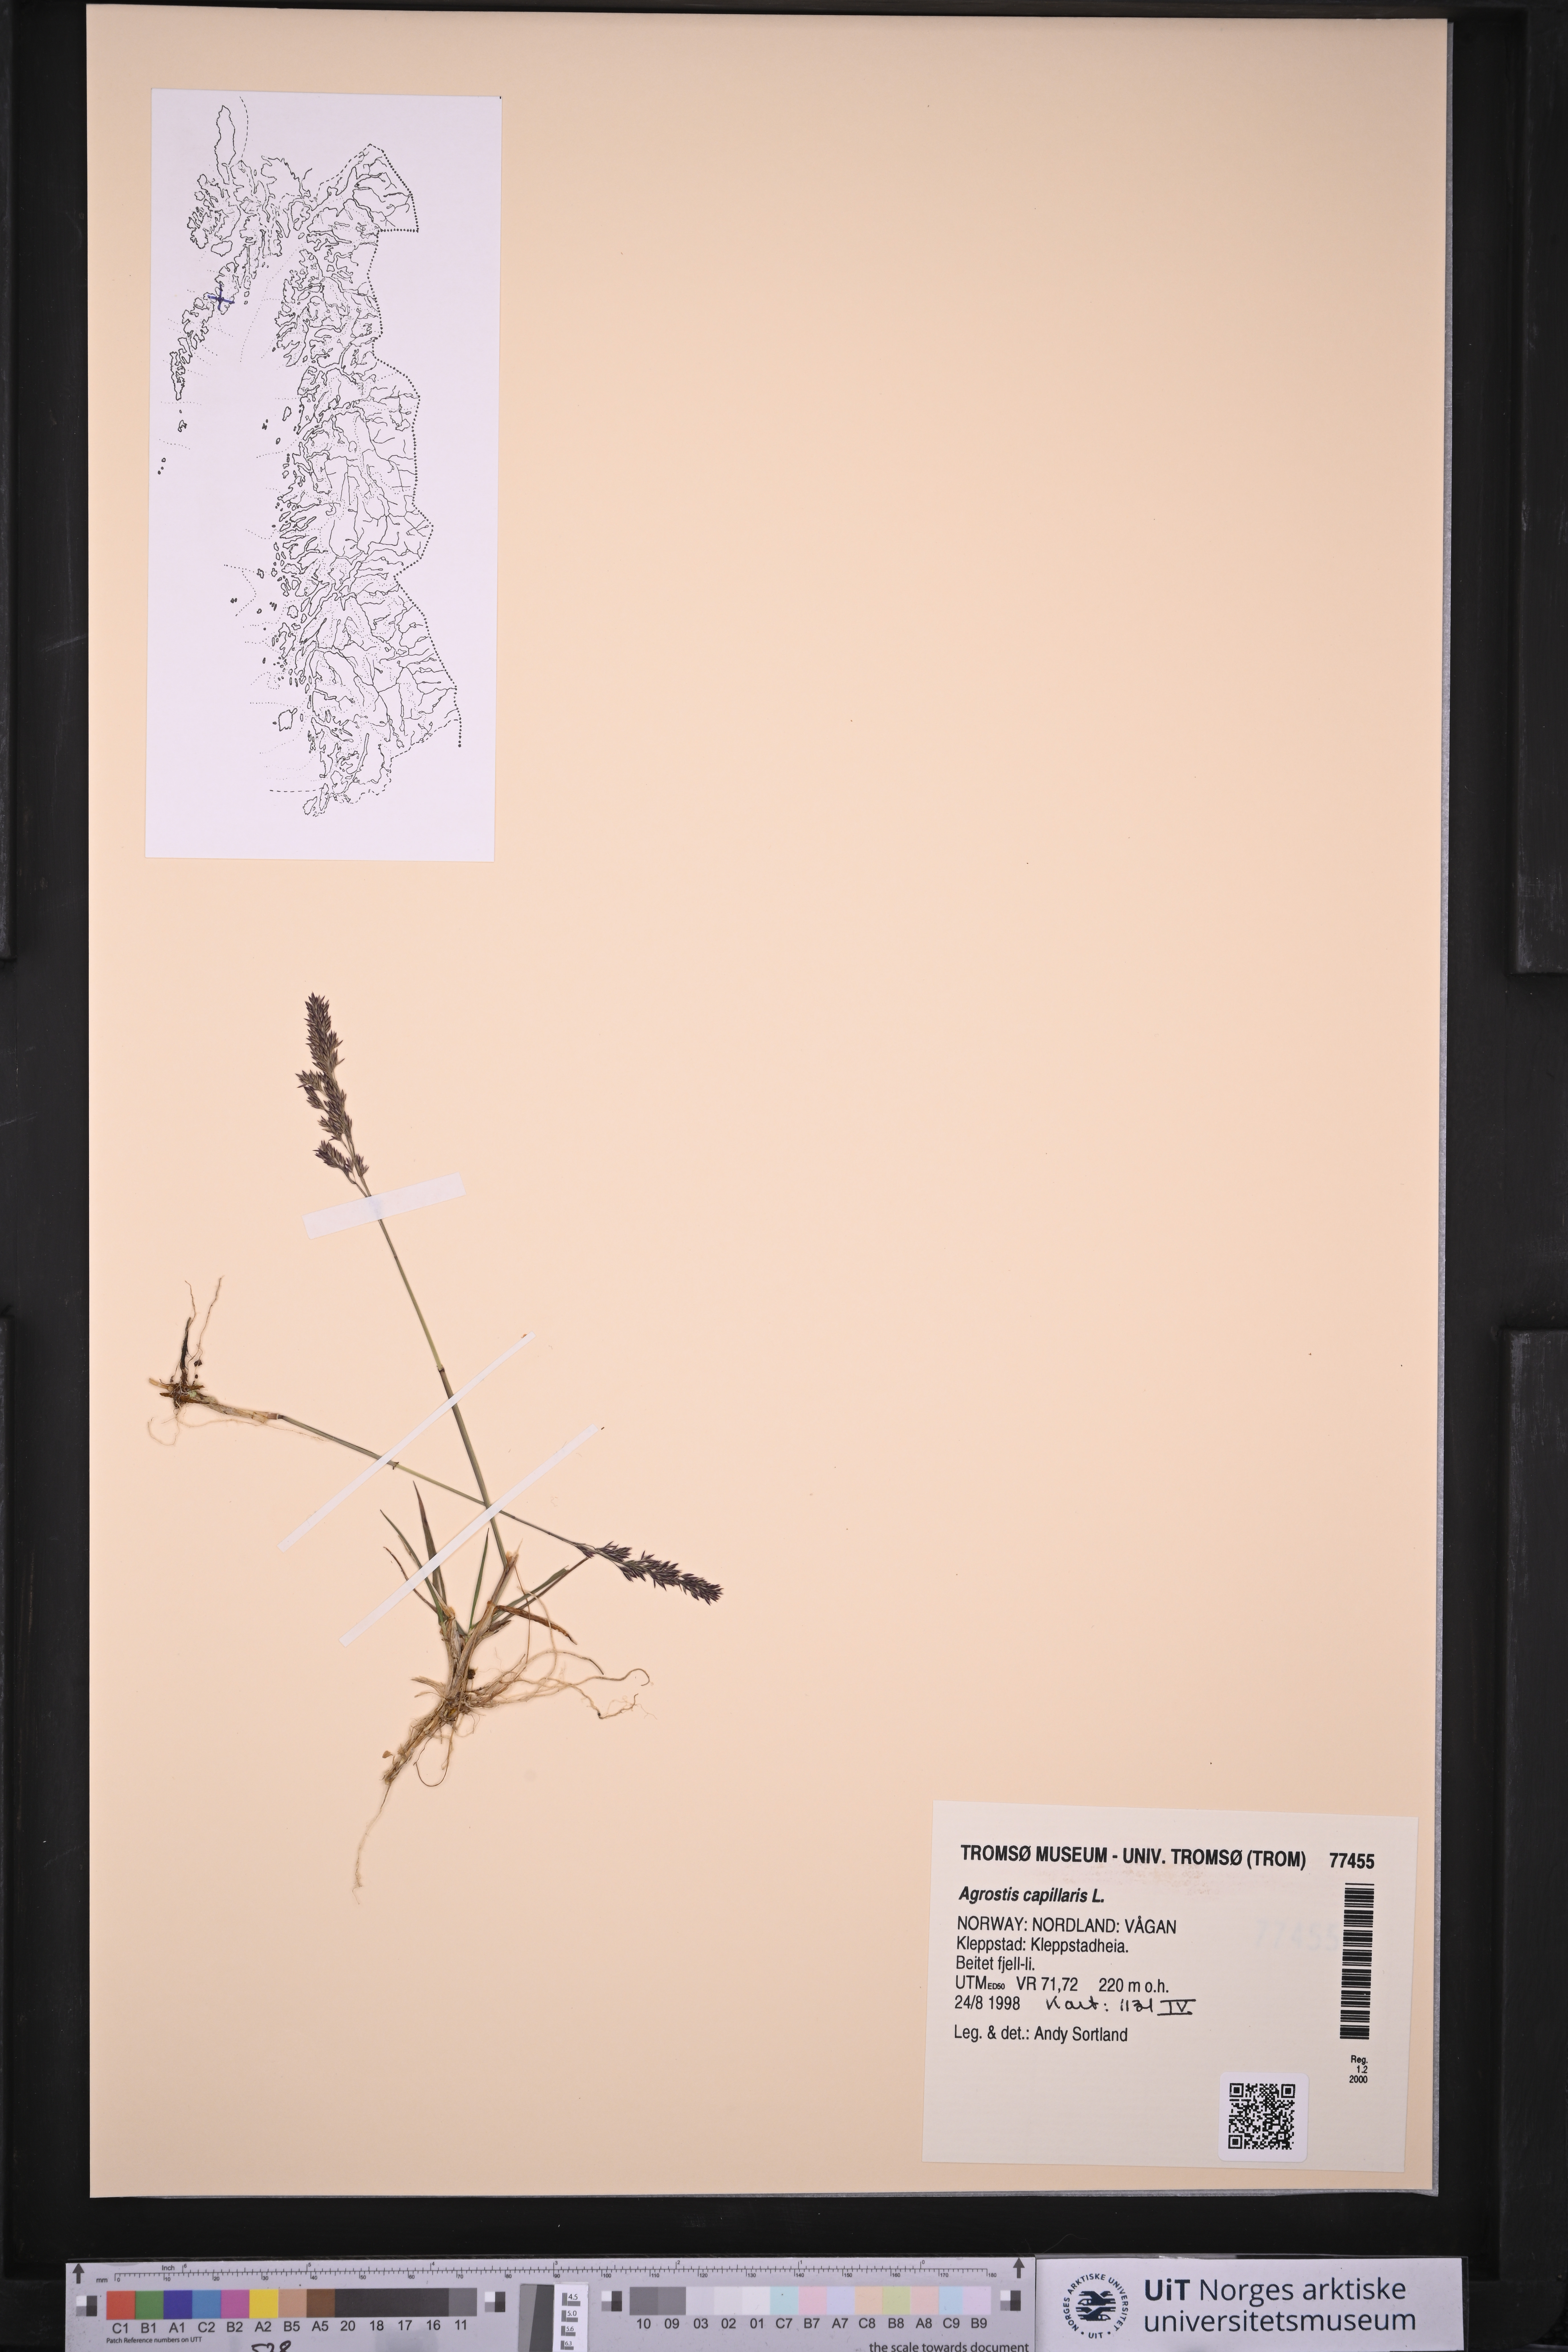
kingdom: Plantae
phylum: Tracheophyta
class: Liliopsida
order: Poales
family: Poaceae
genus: Agrostis
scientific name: Agrostis capillaris
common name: Colonial bentgrass
